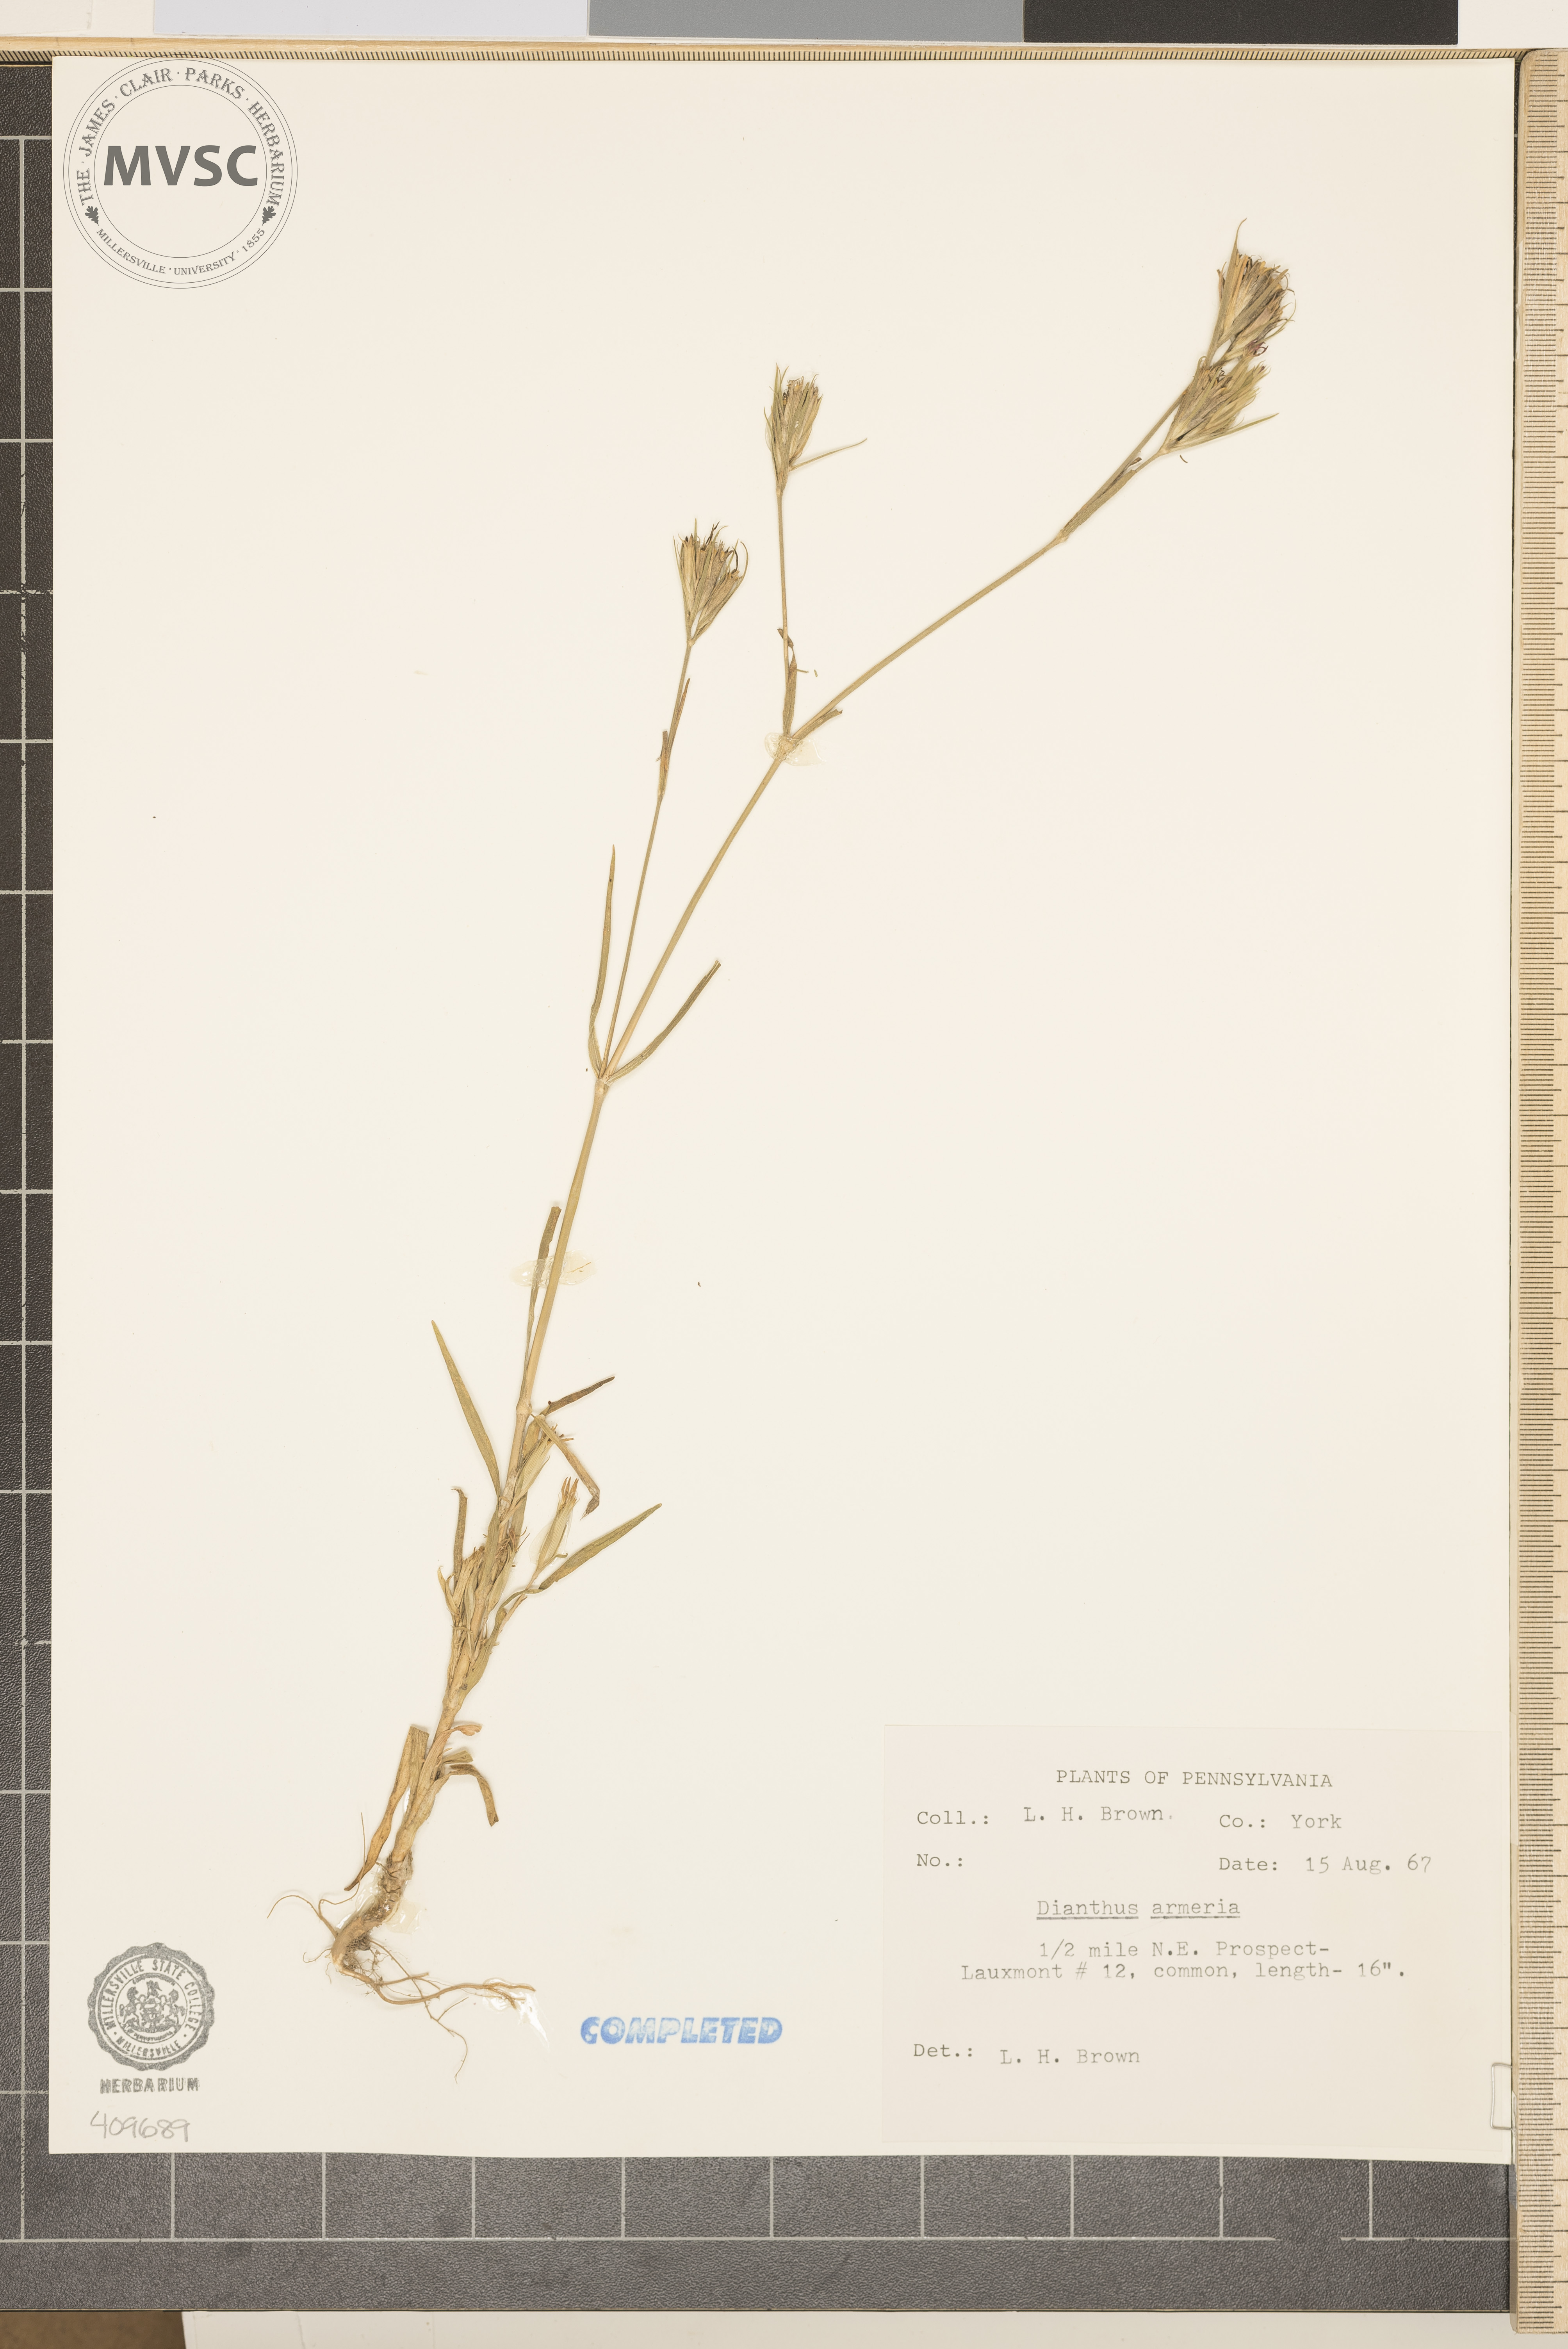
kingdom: Plantae
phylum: Tracheophyta
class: Magnoliopsida
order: Caryophyllales
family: Caryophyllaceae
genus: Dianthus
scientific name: Dianthus armeria
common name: Deptford pink
